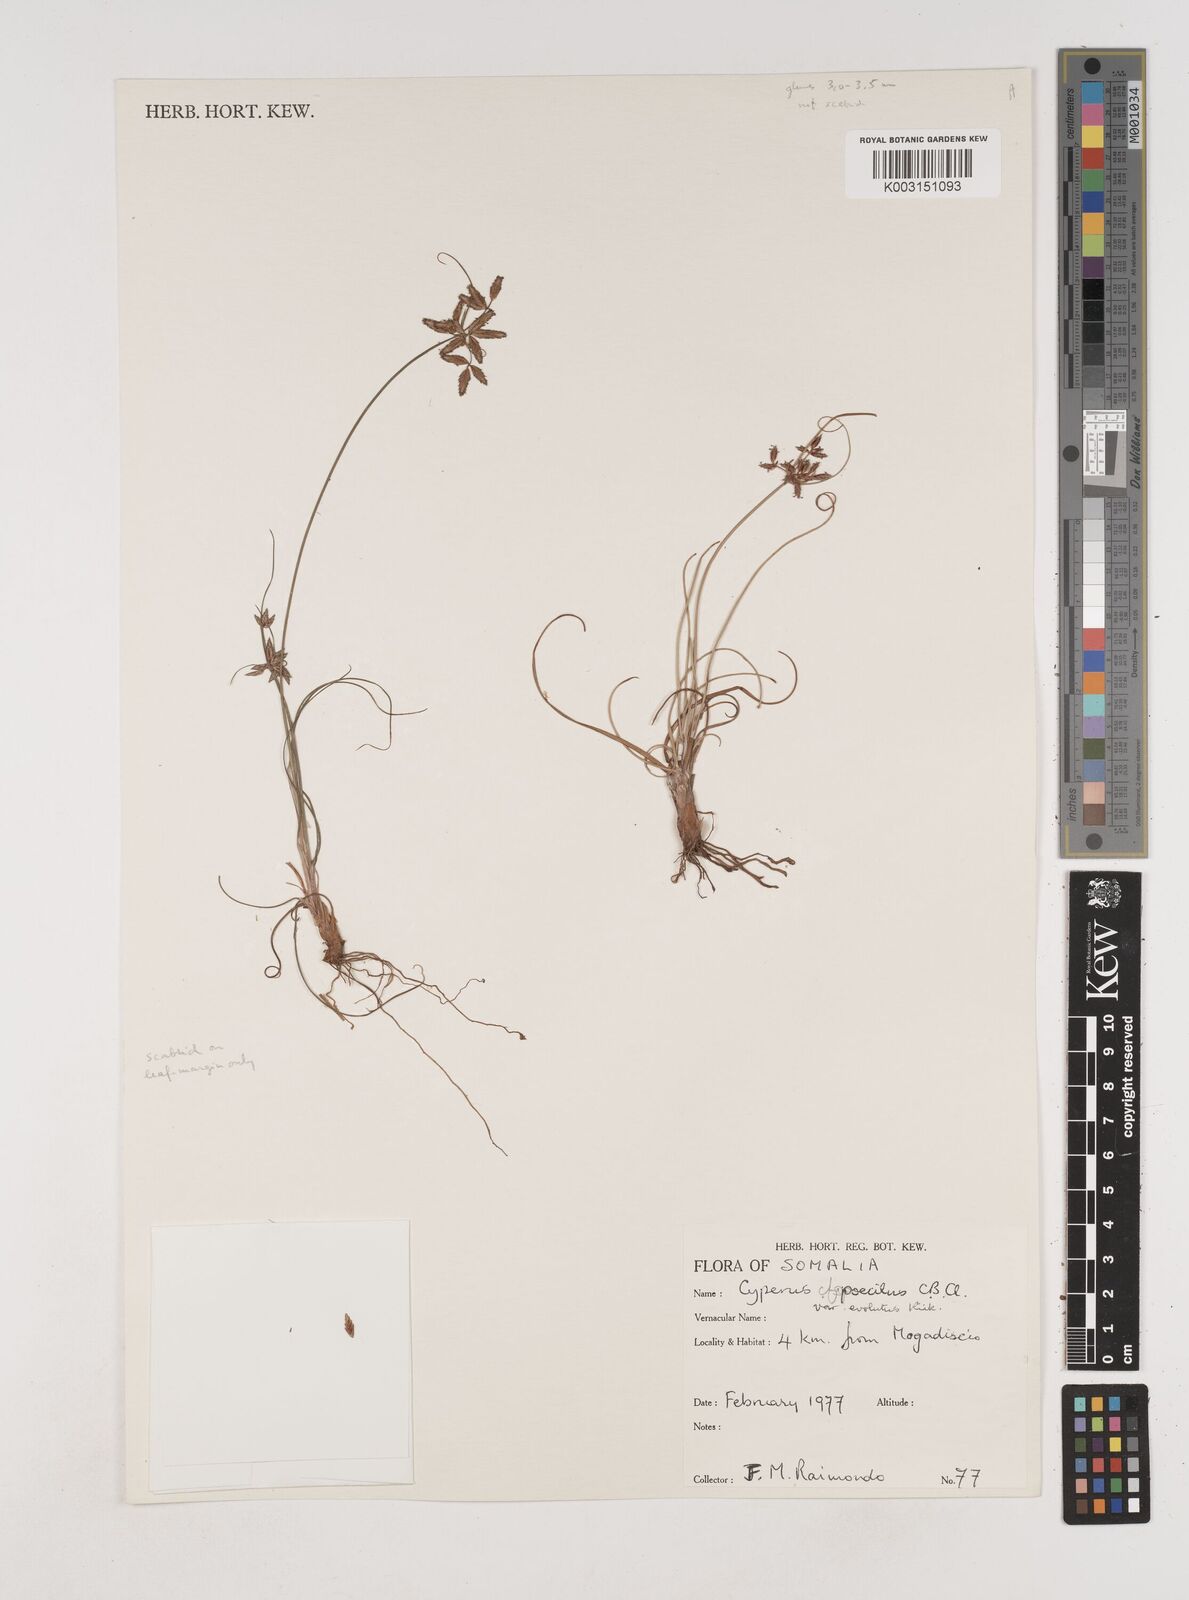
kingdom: Plantae
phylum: Tracheophyta
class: Liliopsida
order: Poales
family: Cyperaceae
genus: Cyperus
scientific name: Cyperus poecilus
